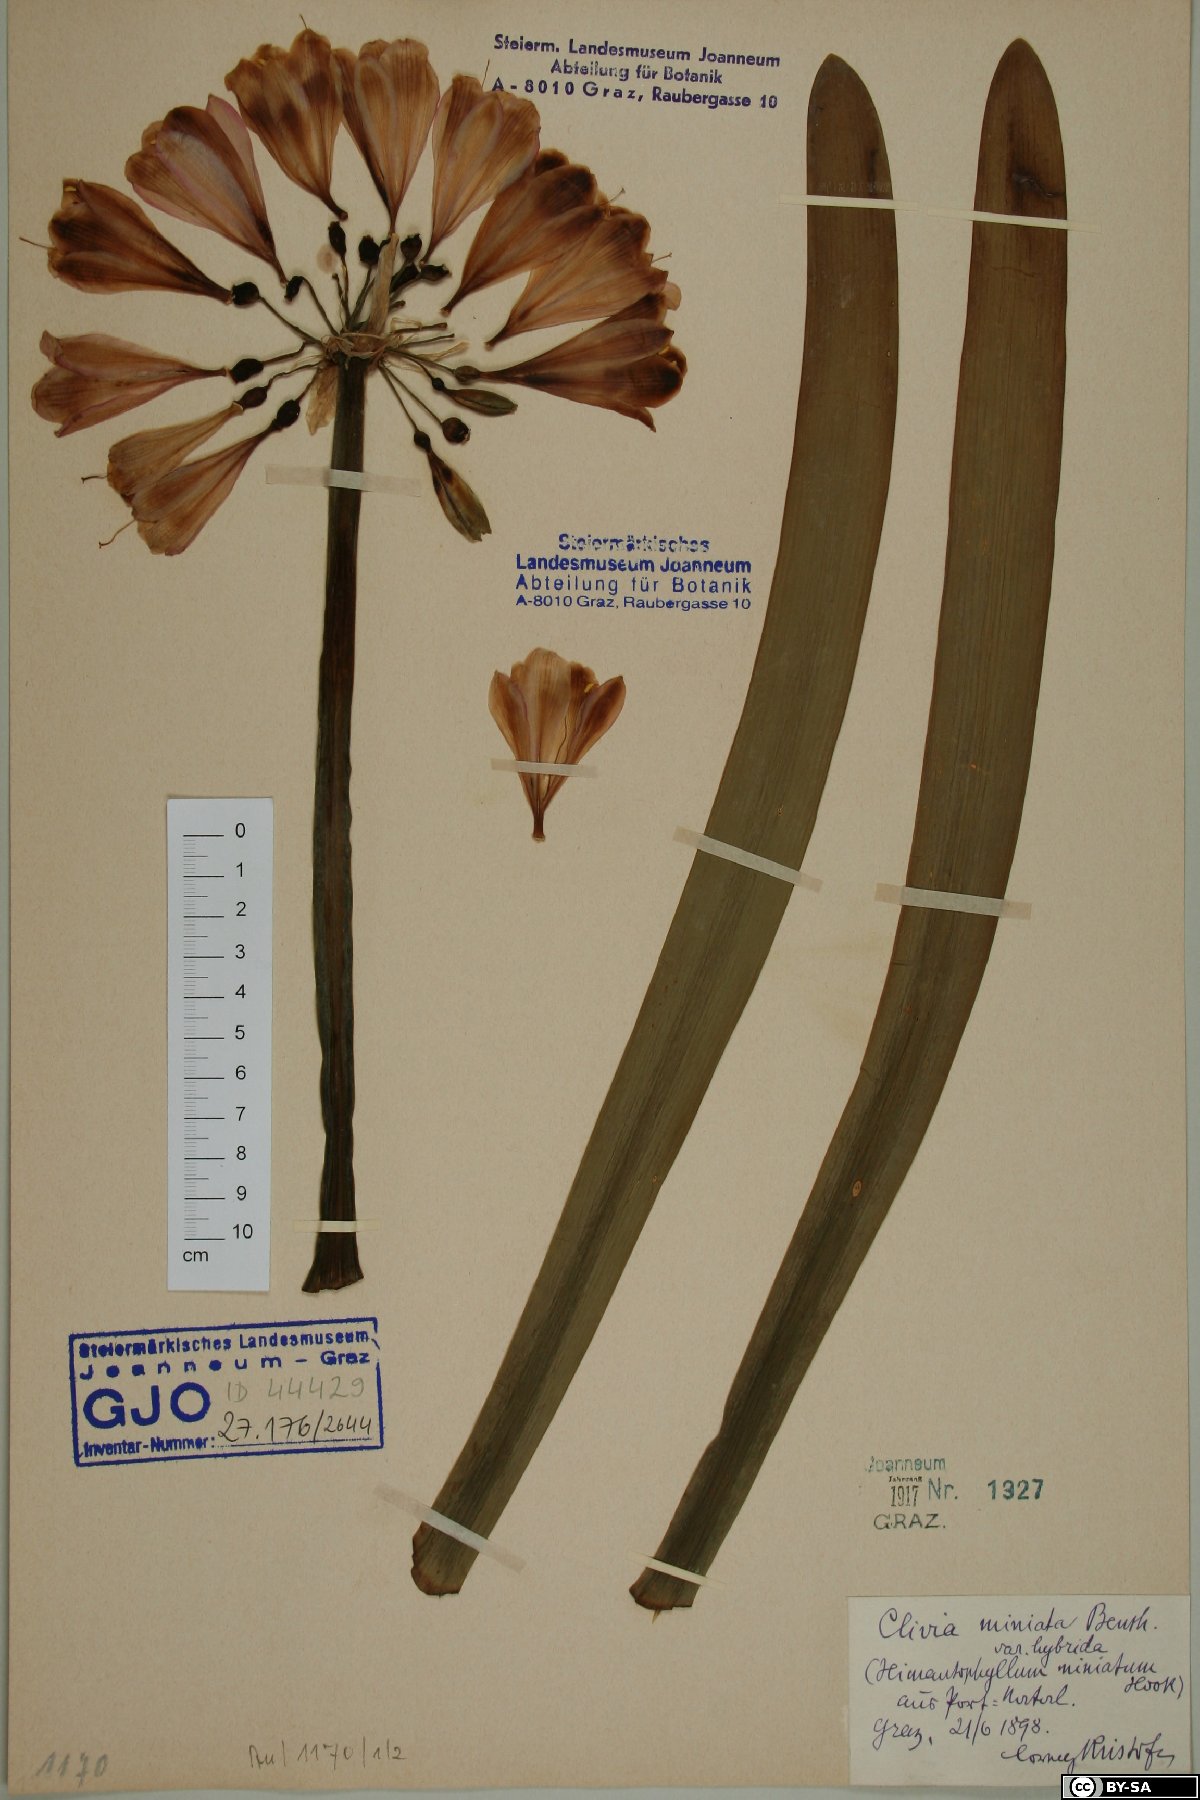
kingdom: Plantae
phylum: Tracheophyta
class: Liliopsida
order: Asparagales
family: Amaryllidaceae
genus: Clivia
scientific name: Clivia miniata
